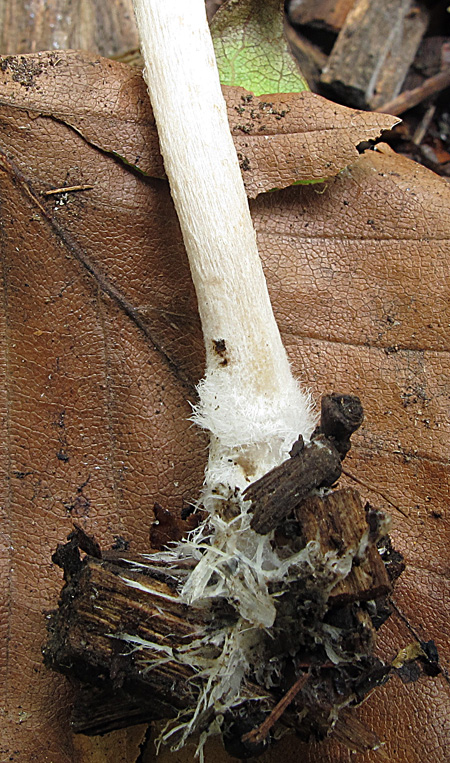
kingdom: Fungi
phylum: Basidiomycota
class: Agaricomycetes
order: Agaricales
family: Psathyrellaceae
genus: Psathyrella
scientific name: Psathyrella microrhiza
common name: rod-mørkhat
